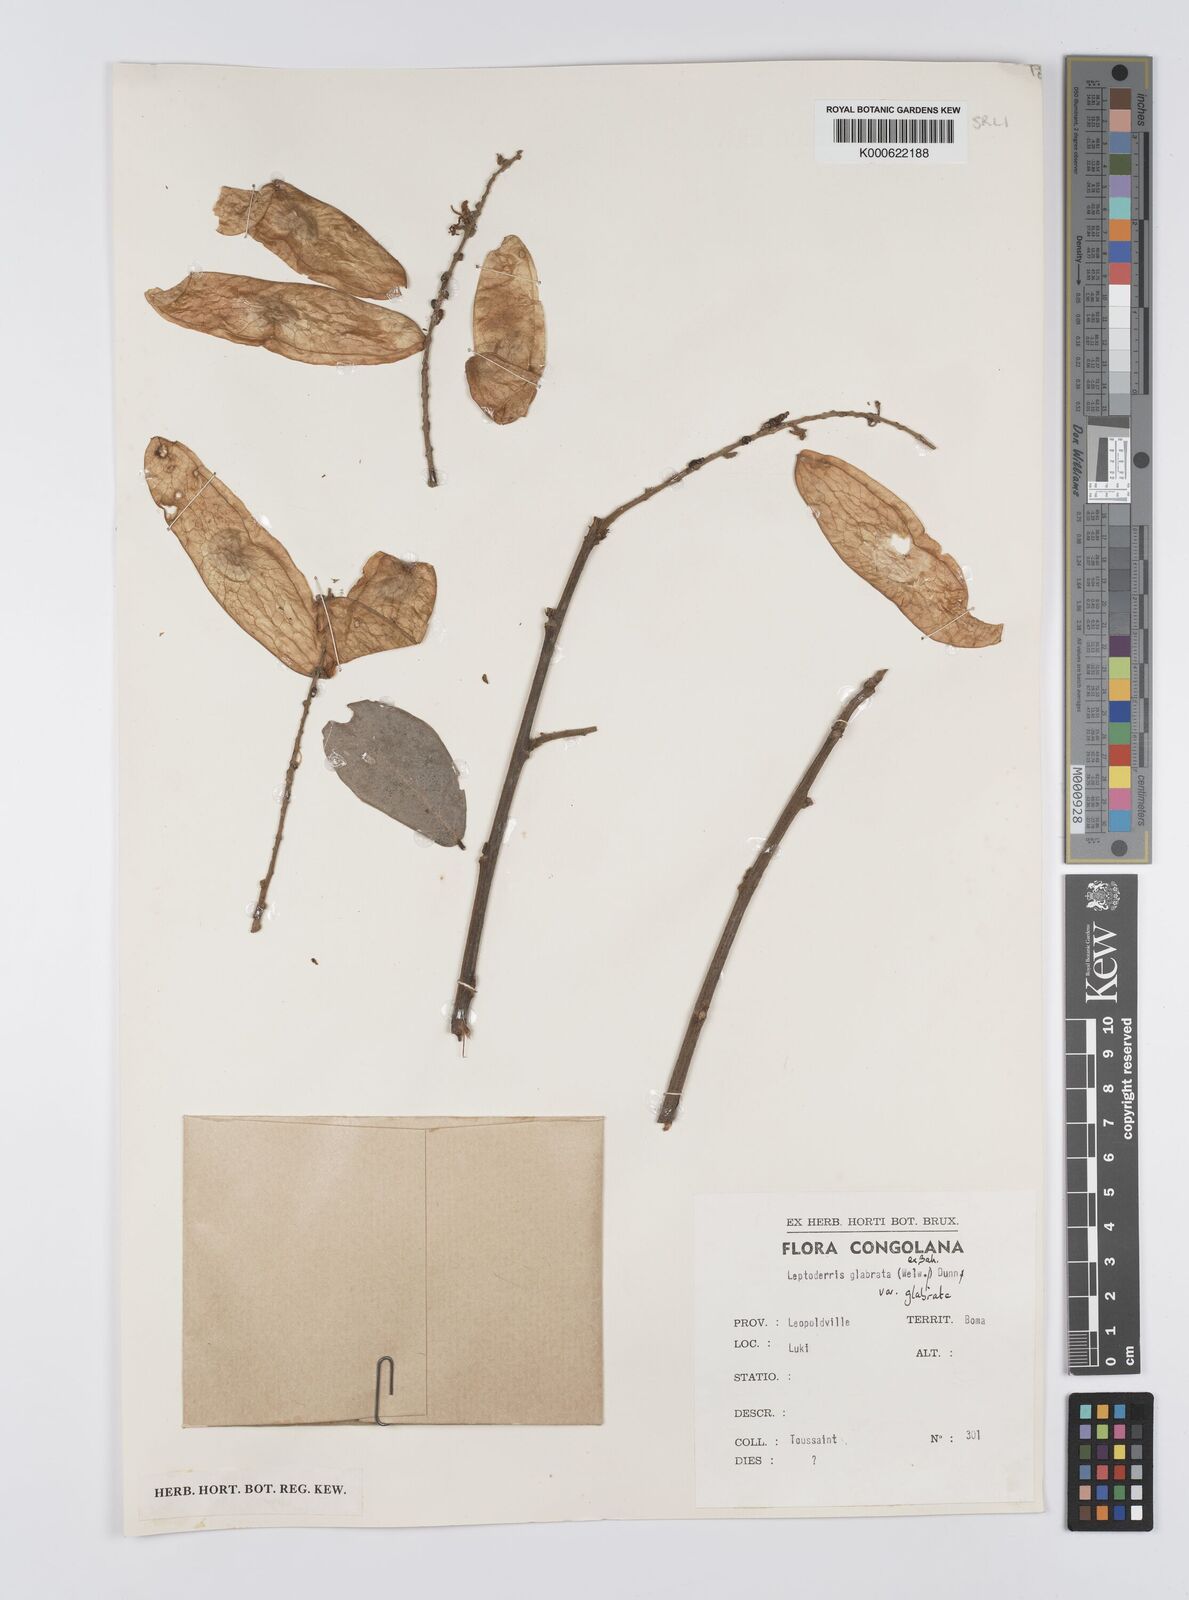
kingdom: Plantae
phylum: Tracheophyta
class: Magnoliopsida
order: Fabales
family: Fabaceae
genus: Leptoderris
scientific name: Leptoderris glabrata
